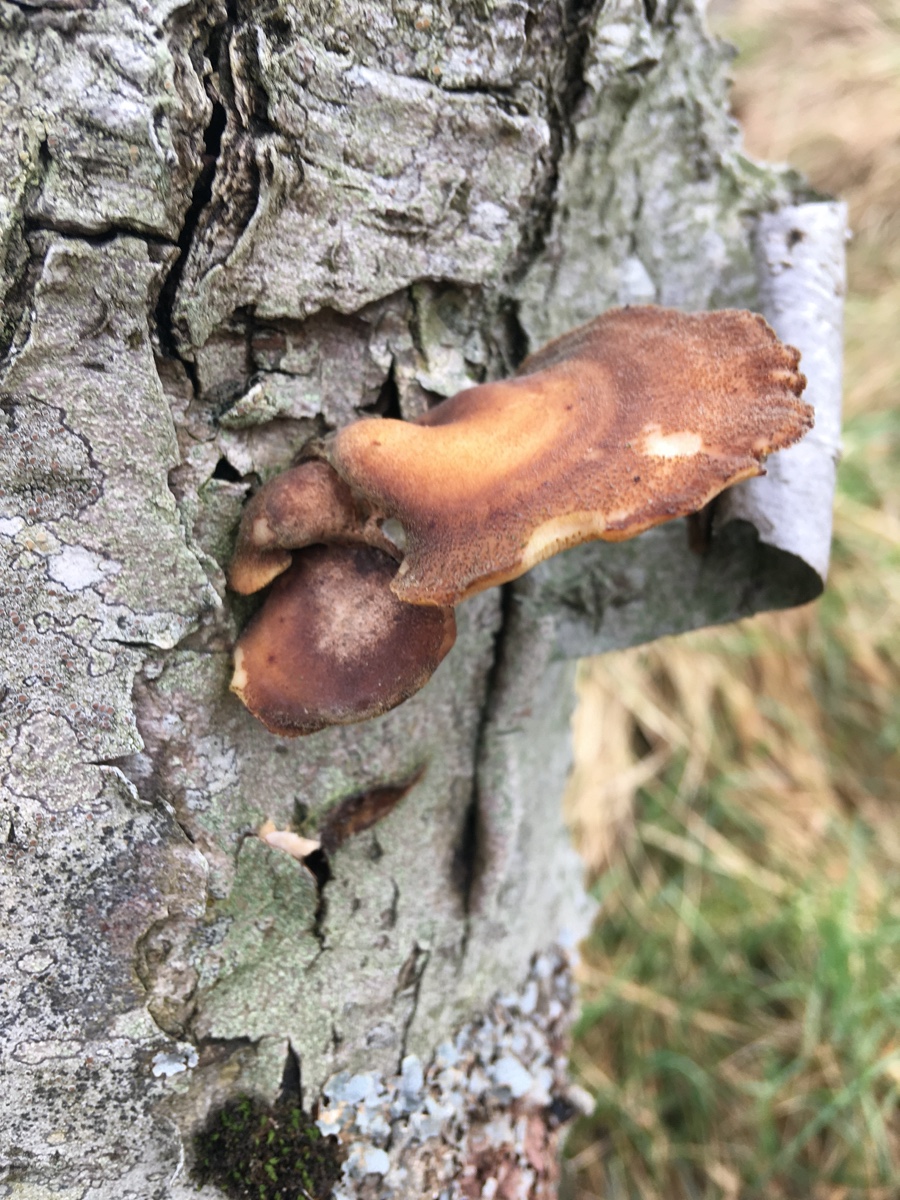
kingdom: Fungi
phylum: Basidiomycota
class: Agaricomycetes
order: Polyporales
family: Polyporaceae
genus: Lentinus
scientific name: Lentinus brumalis
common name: vinter-stilkporesvamp
